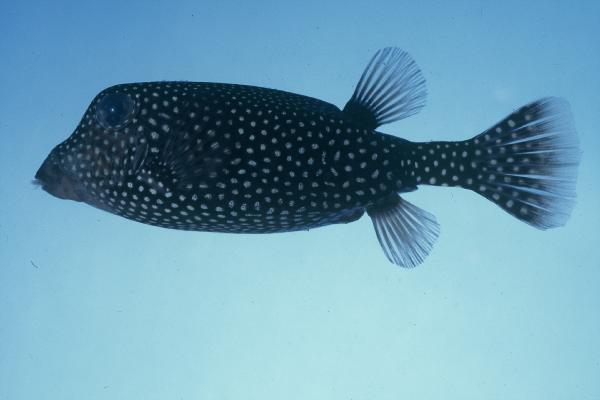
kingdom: Animalia
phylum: Chordata
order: Tetraodontiformes
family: Ostraciidae
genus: Ostracion
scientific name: Ostracion meleagris
